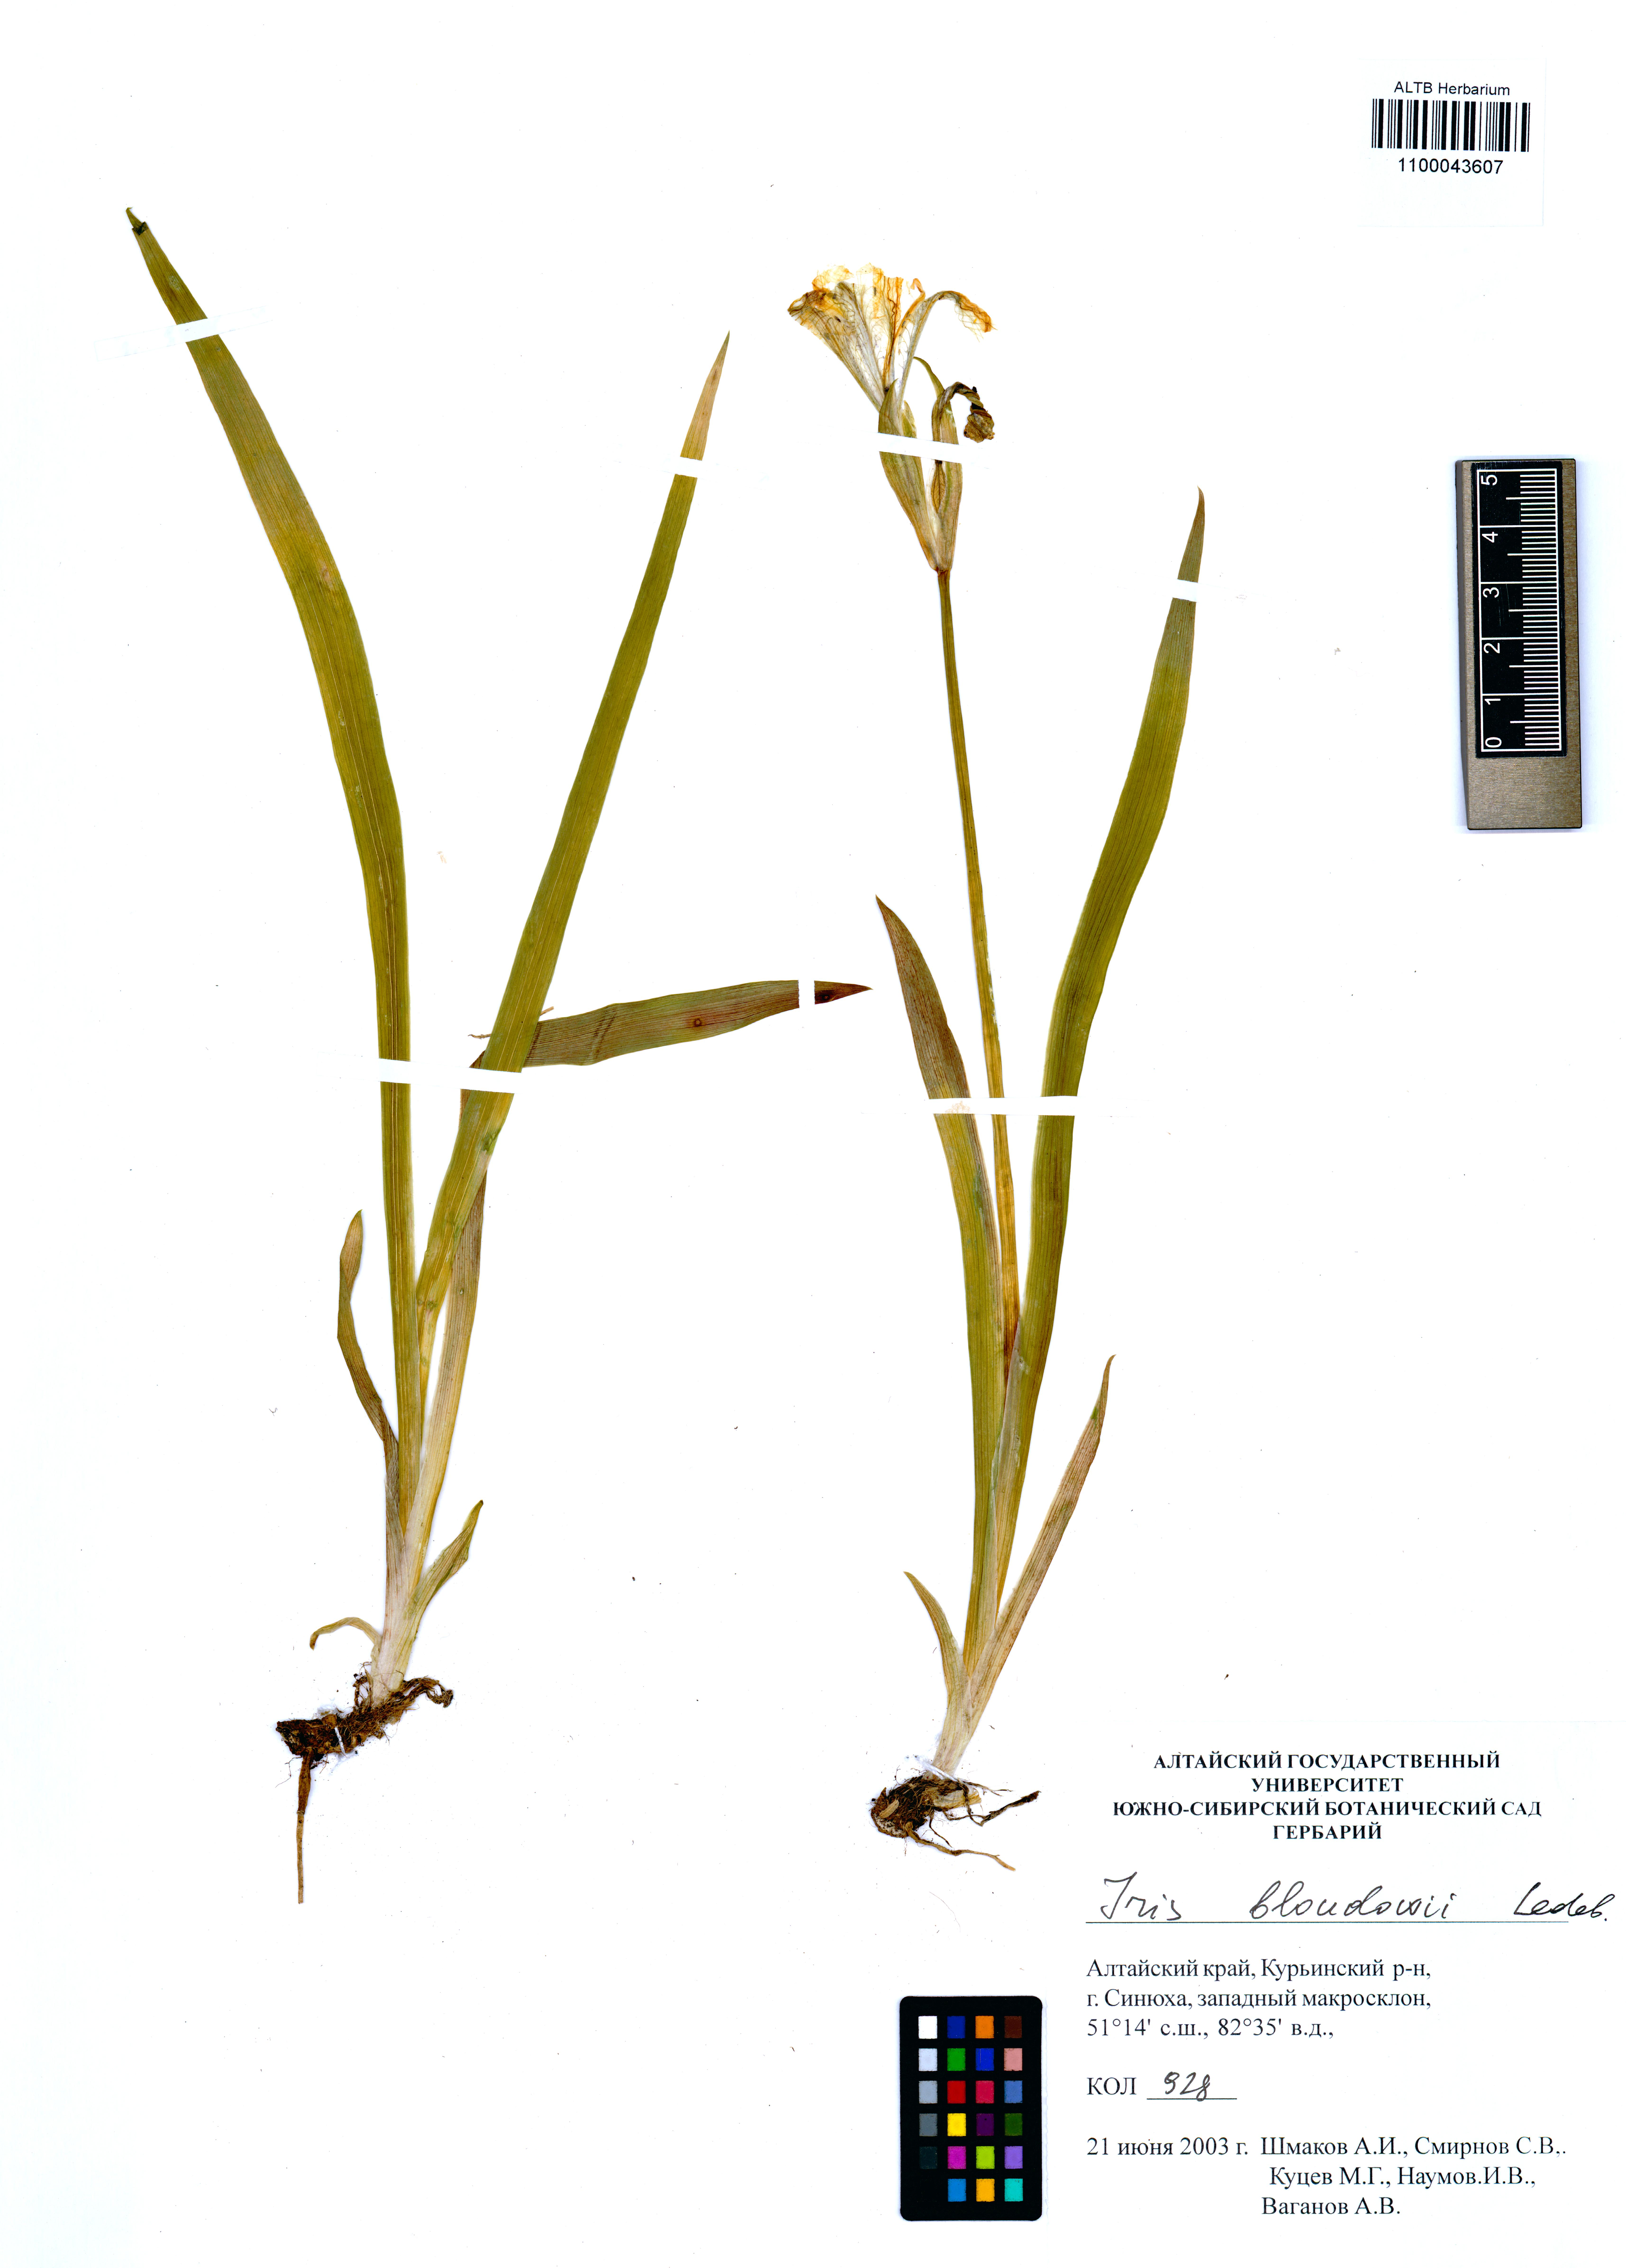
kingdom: Plantae
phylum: Tracheophyta
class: Liliopsida
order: Asparagales
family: Iridaceae
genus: Iris
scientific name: Iris bloudowii
